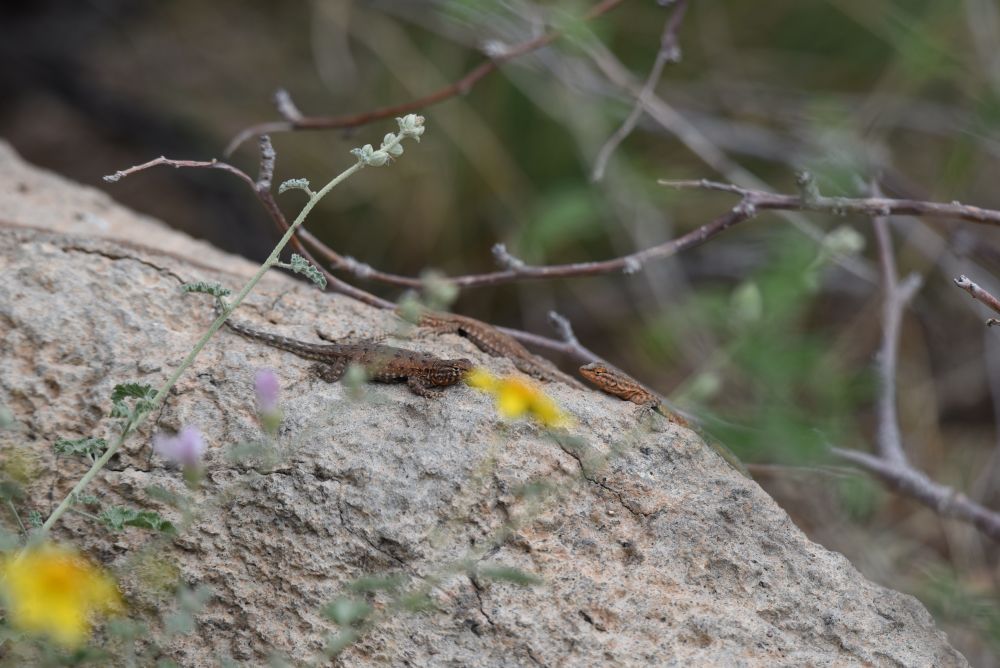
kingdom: Animalia
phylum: Chordata
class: Squamata
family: Phrynosomatidae
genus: Sceloporus
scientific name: Sceloporus occidentalis
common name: Western fence lizard
